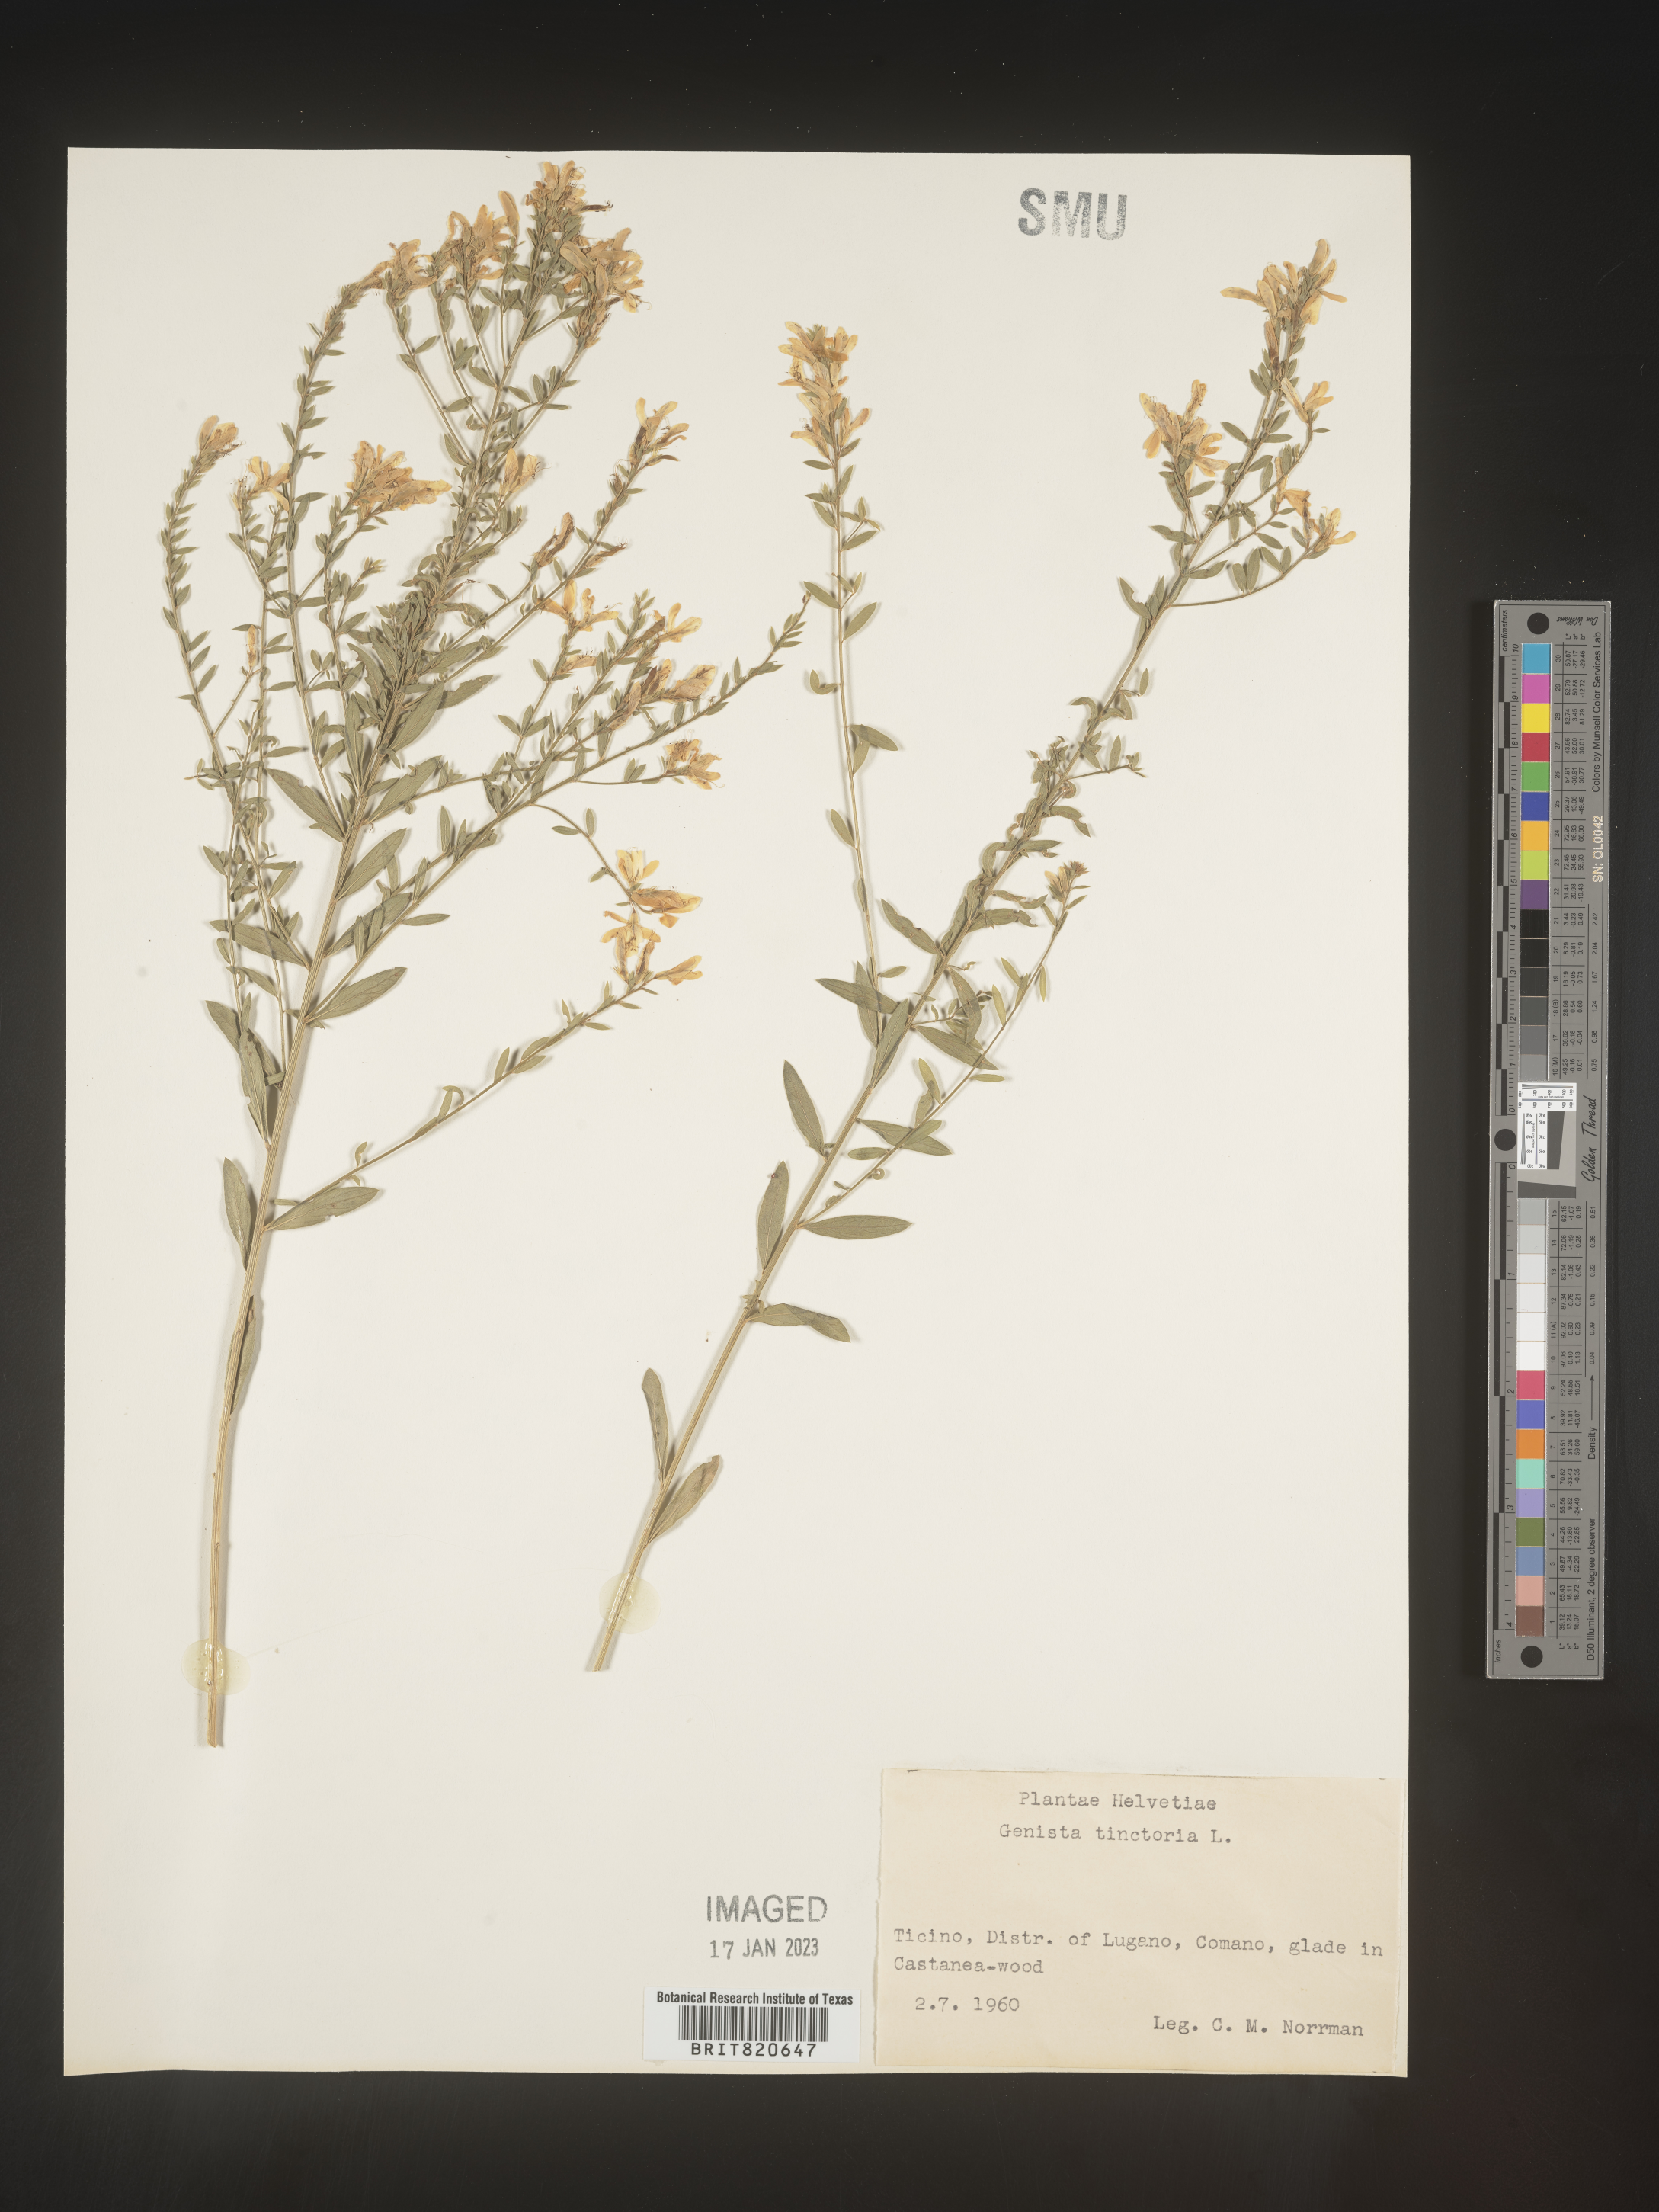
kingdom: Plantae
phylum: Tracheophyta
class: Magnoliopsida
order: Fabales
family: Fabaceae
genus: Genista
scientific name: Genista tinctoria
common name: Dyer's greenweed
